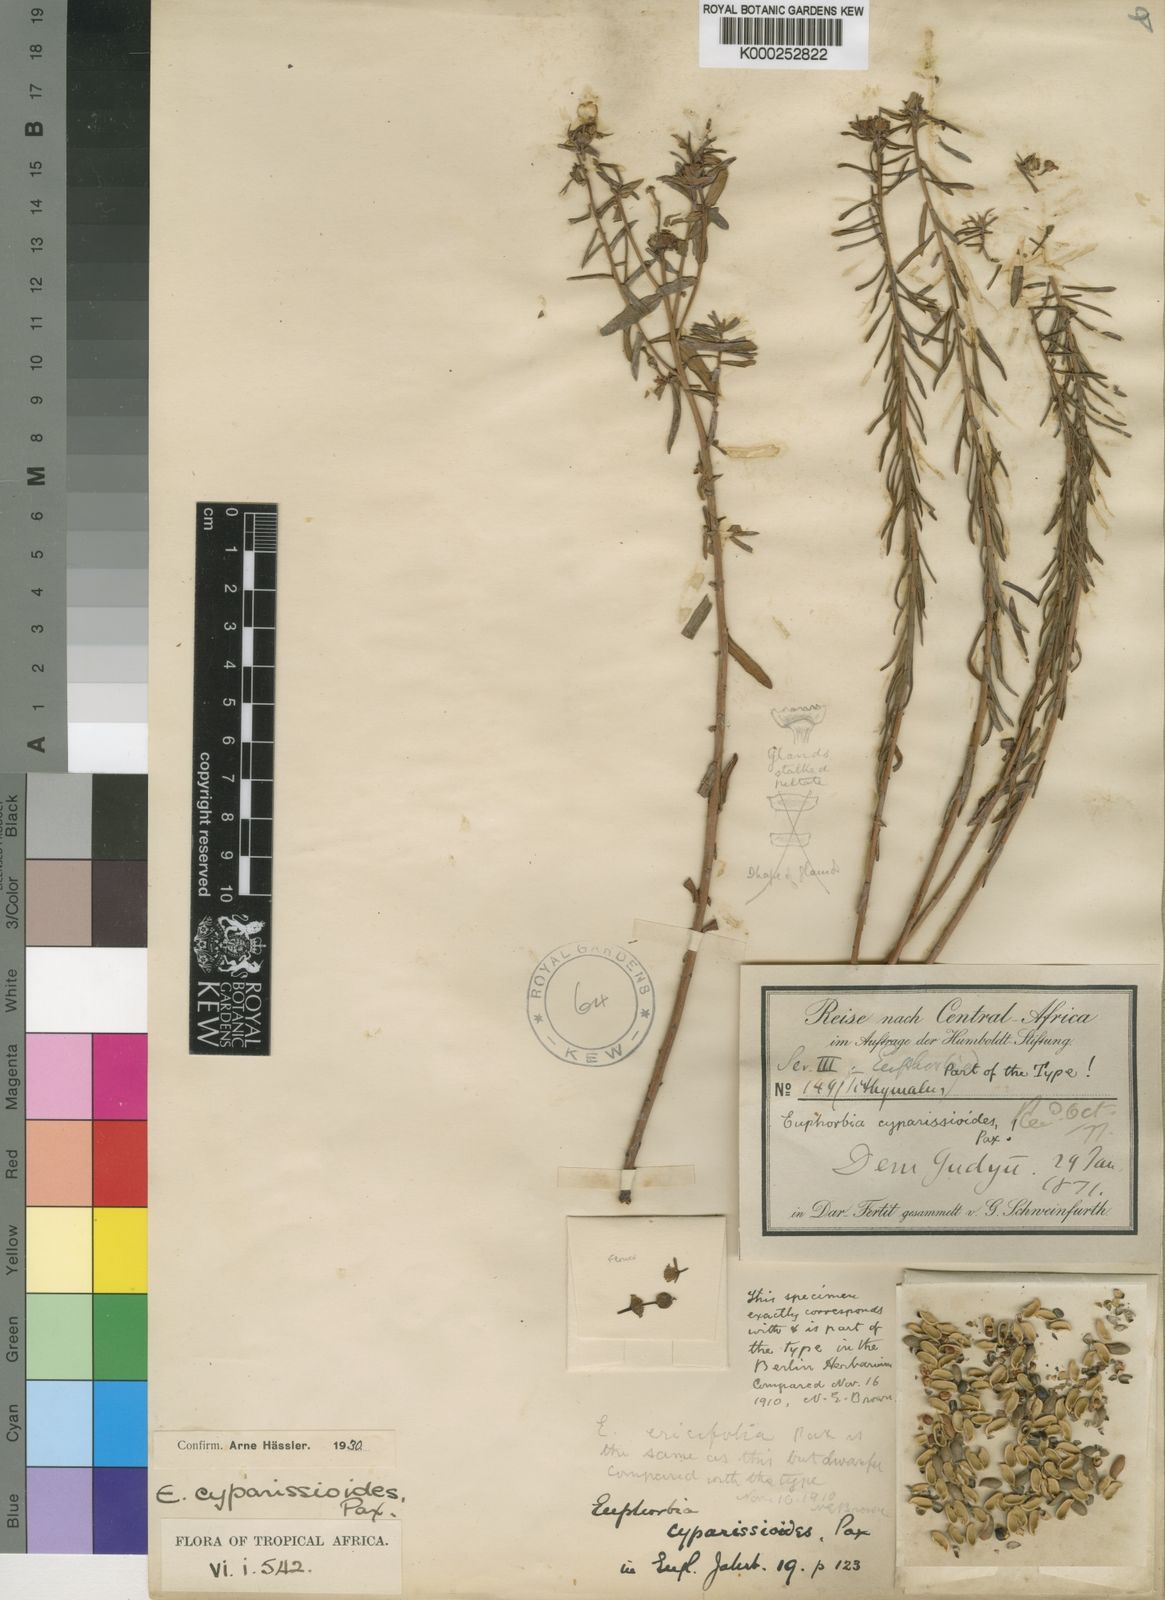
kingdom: Plantae
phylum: Tracheophyta
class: Magnoliopsida
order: Malpighiales
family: Euphorbiaceae
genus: Euphorbia
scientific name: Euphorbia cyparissioides
